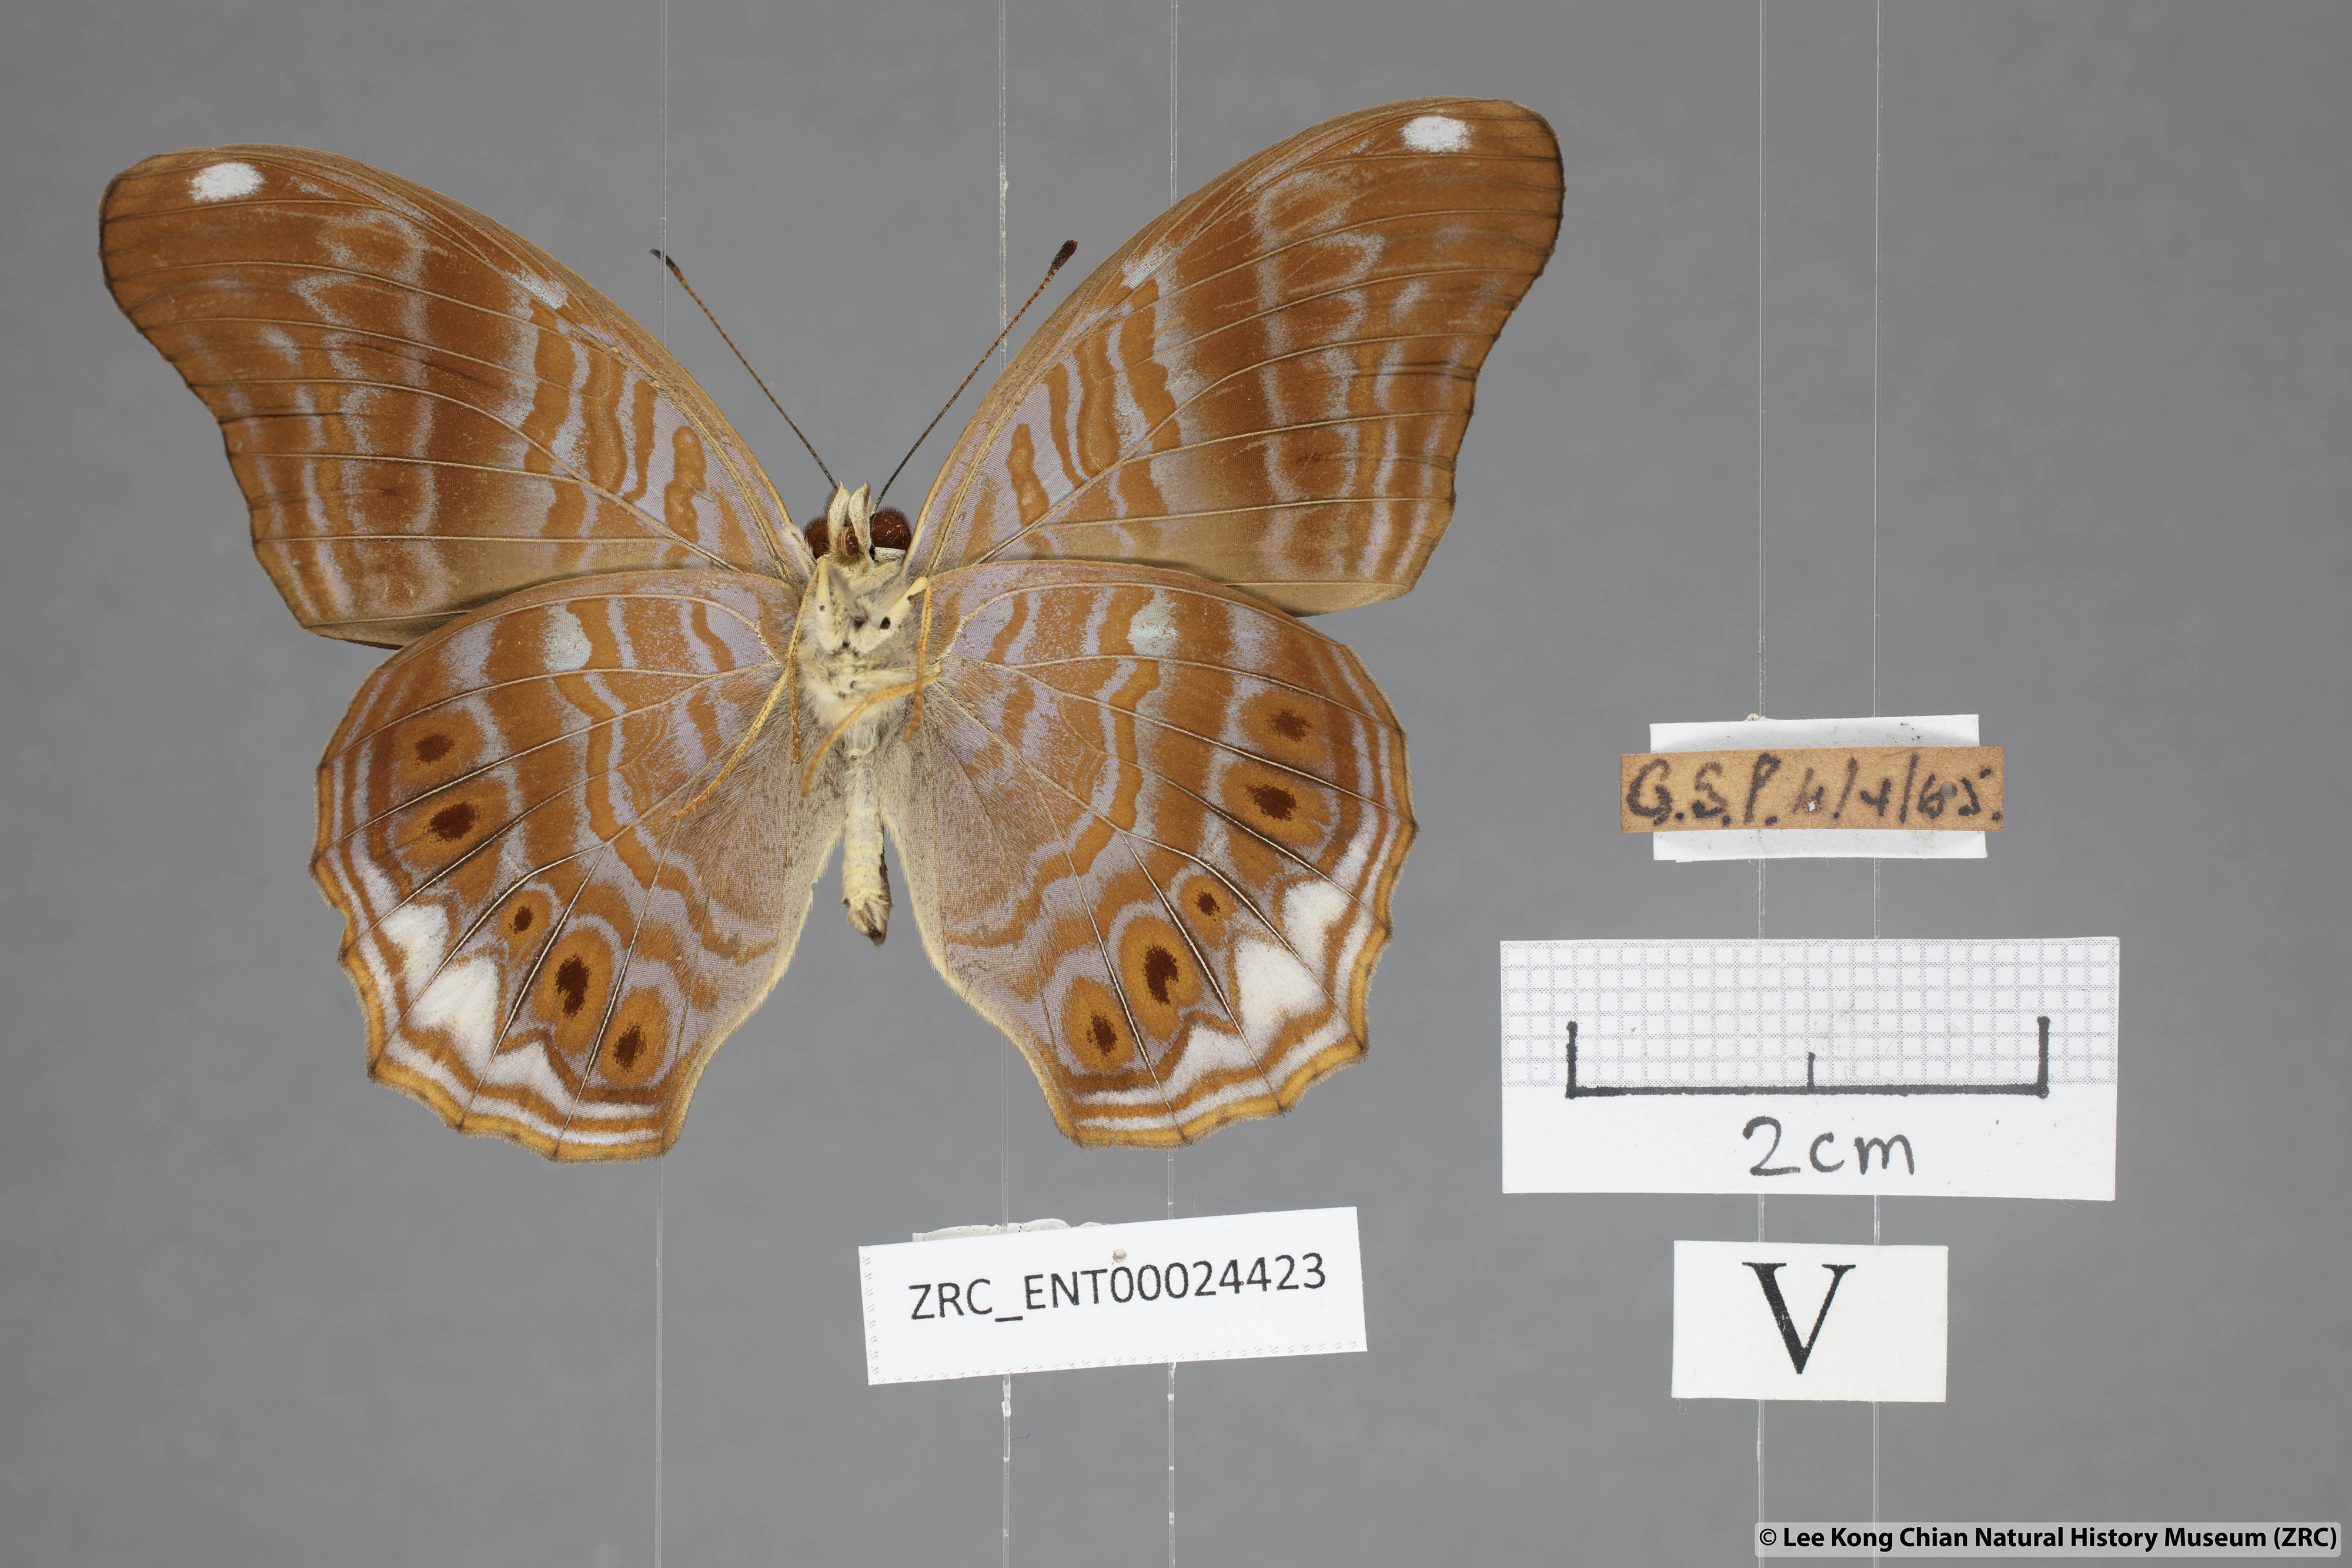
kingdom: Animalia
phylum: Arthropoda
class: Insecta
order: Lepidoptera
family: Nymphalidae
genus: Terinos
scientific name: Terinos atlita
